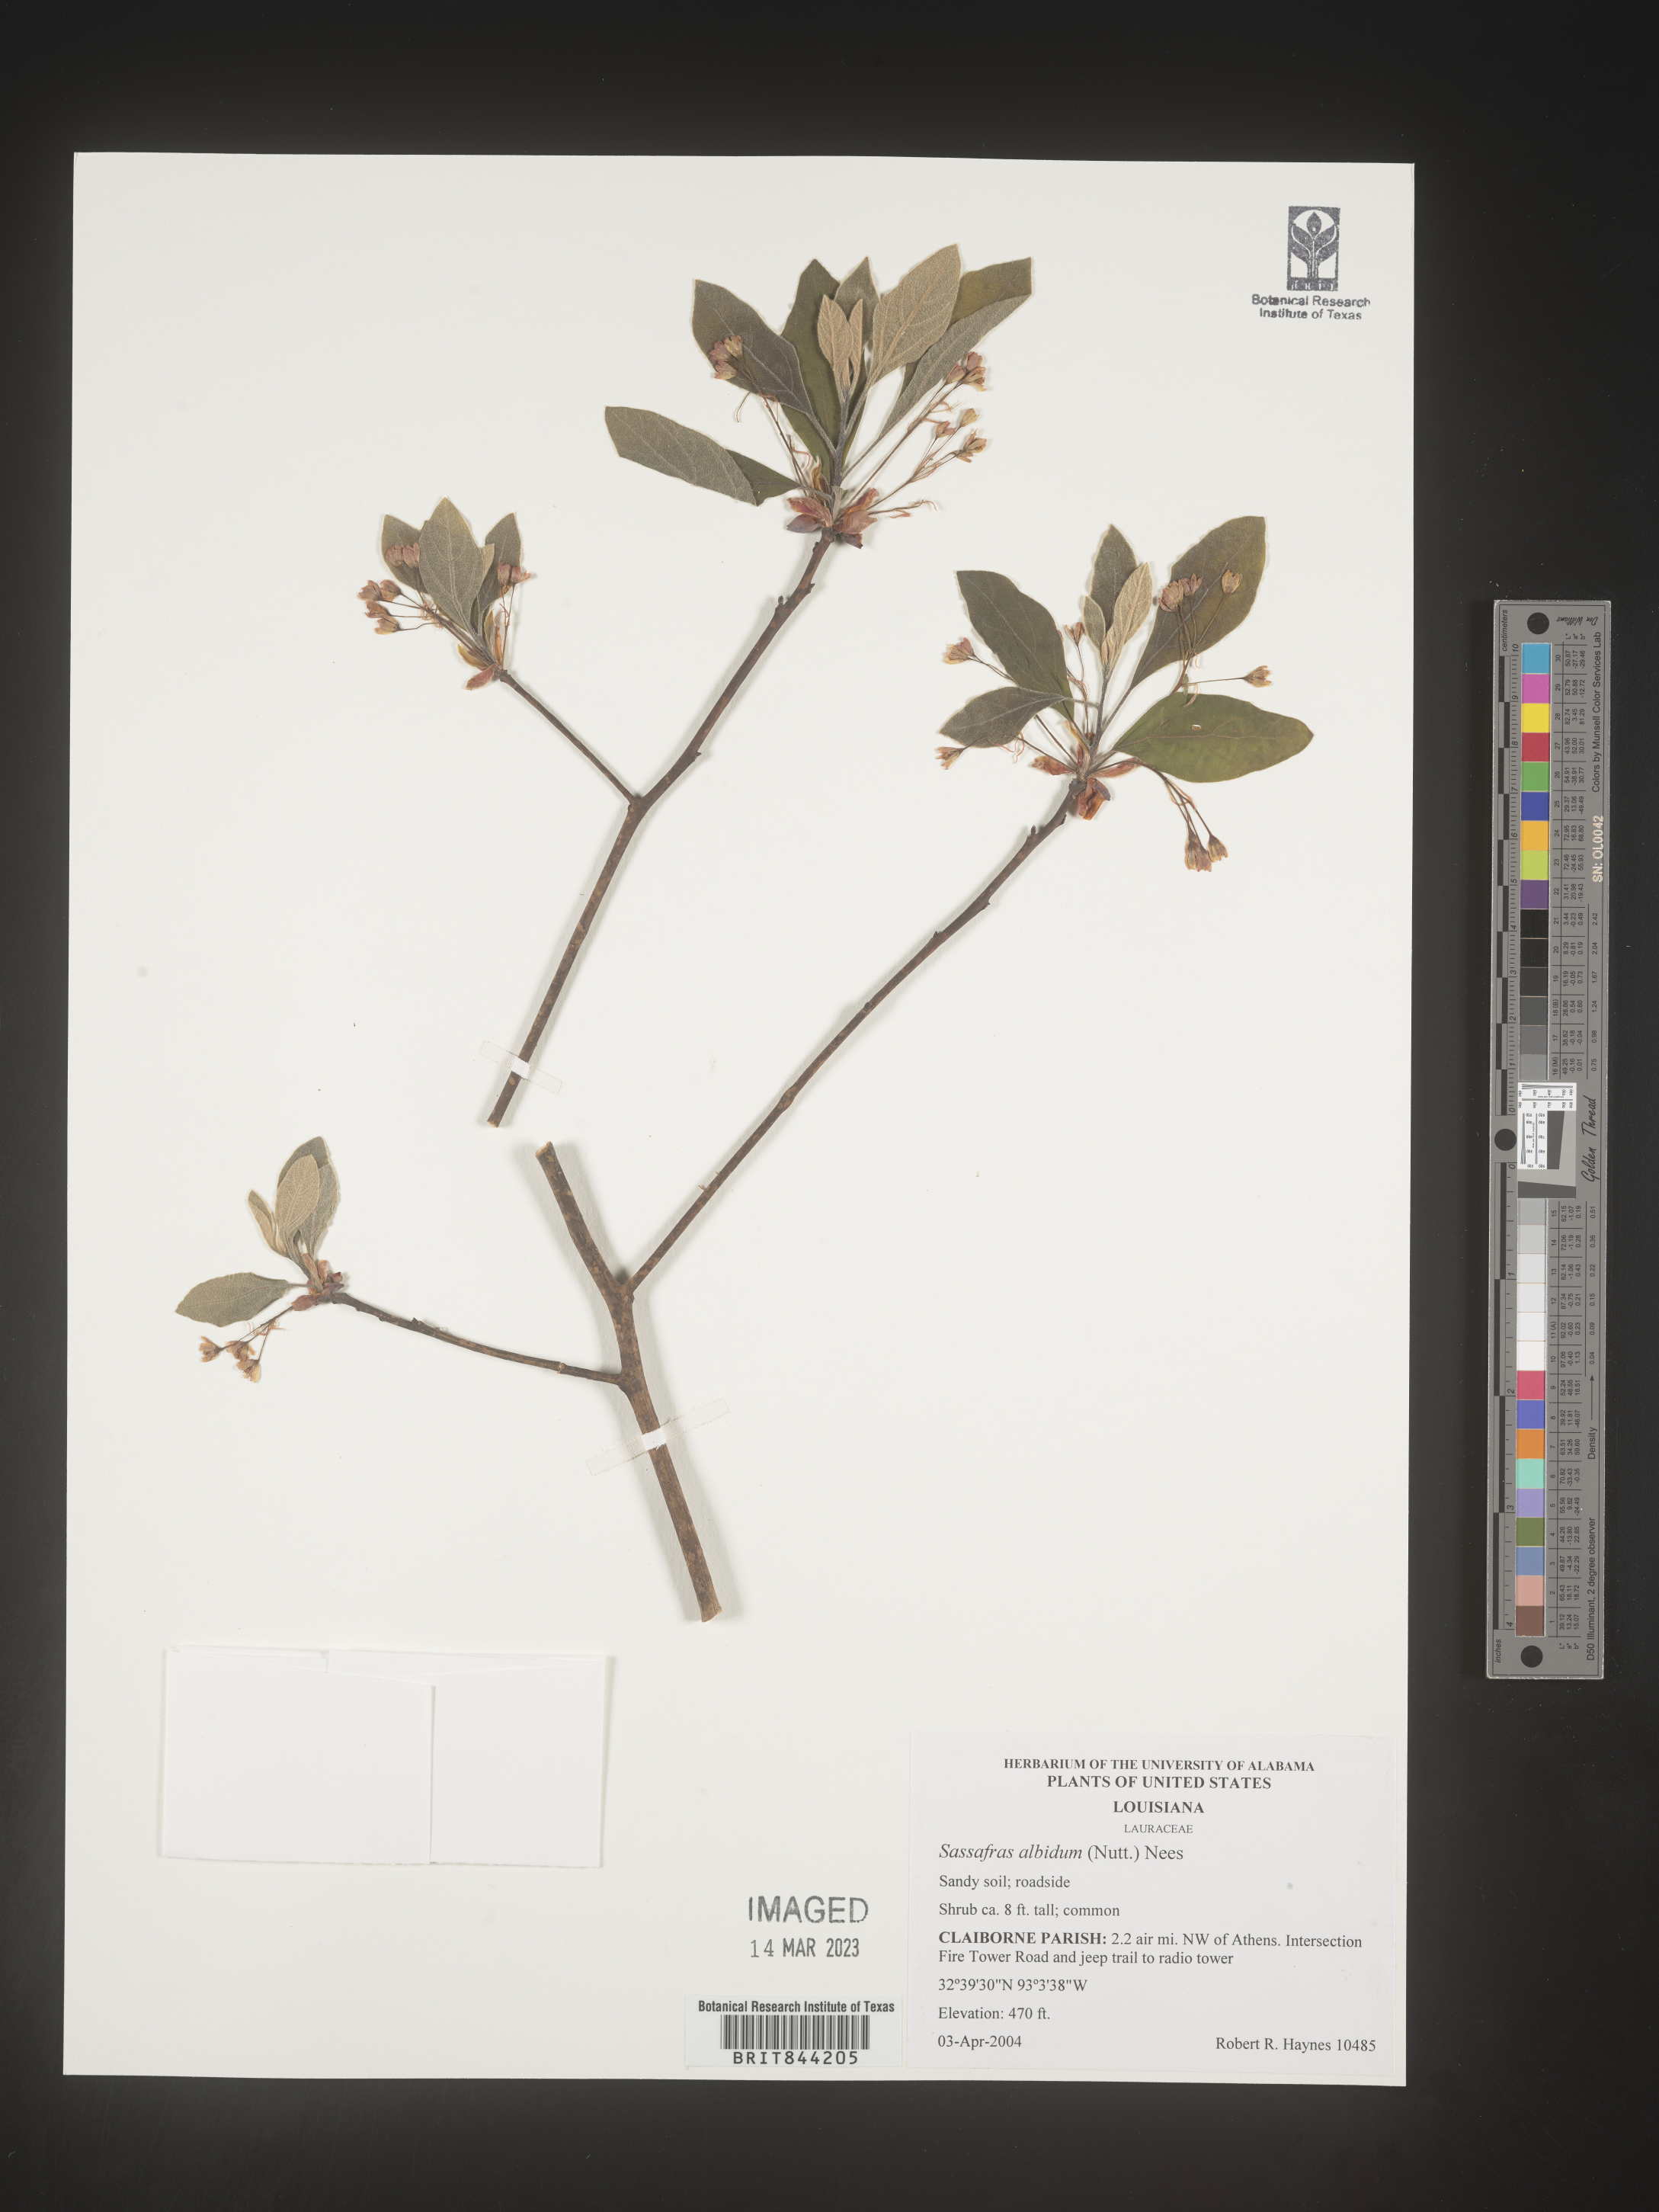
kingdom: Plantae
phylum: Tracheophyta
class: Magnoliopsida
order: Laurales
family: Lauraceae
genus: Sassafras
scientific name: Sassafras albidum
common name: Sassafras
